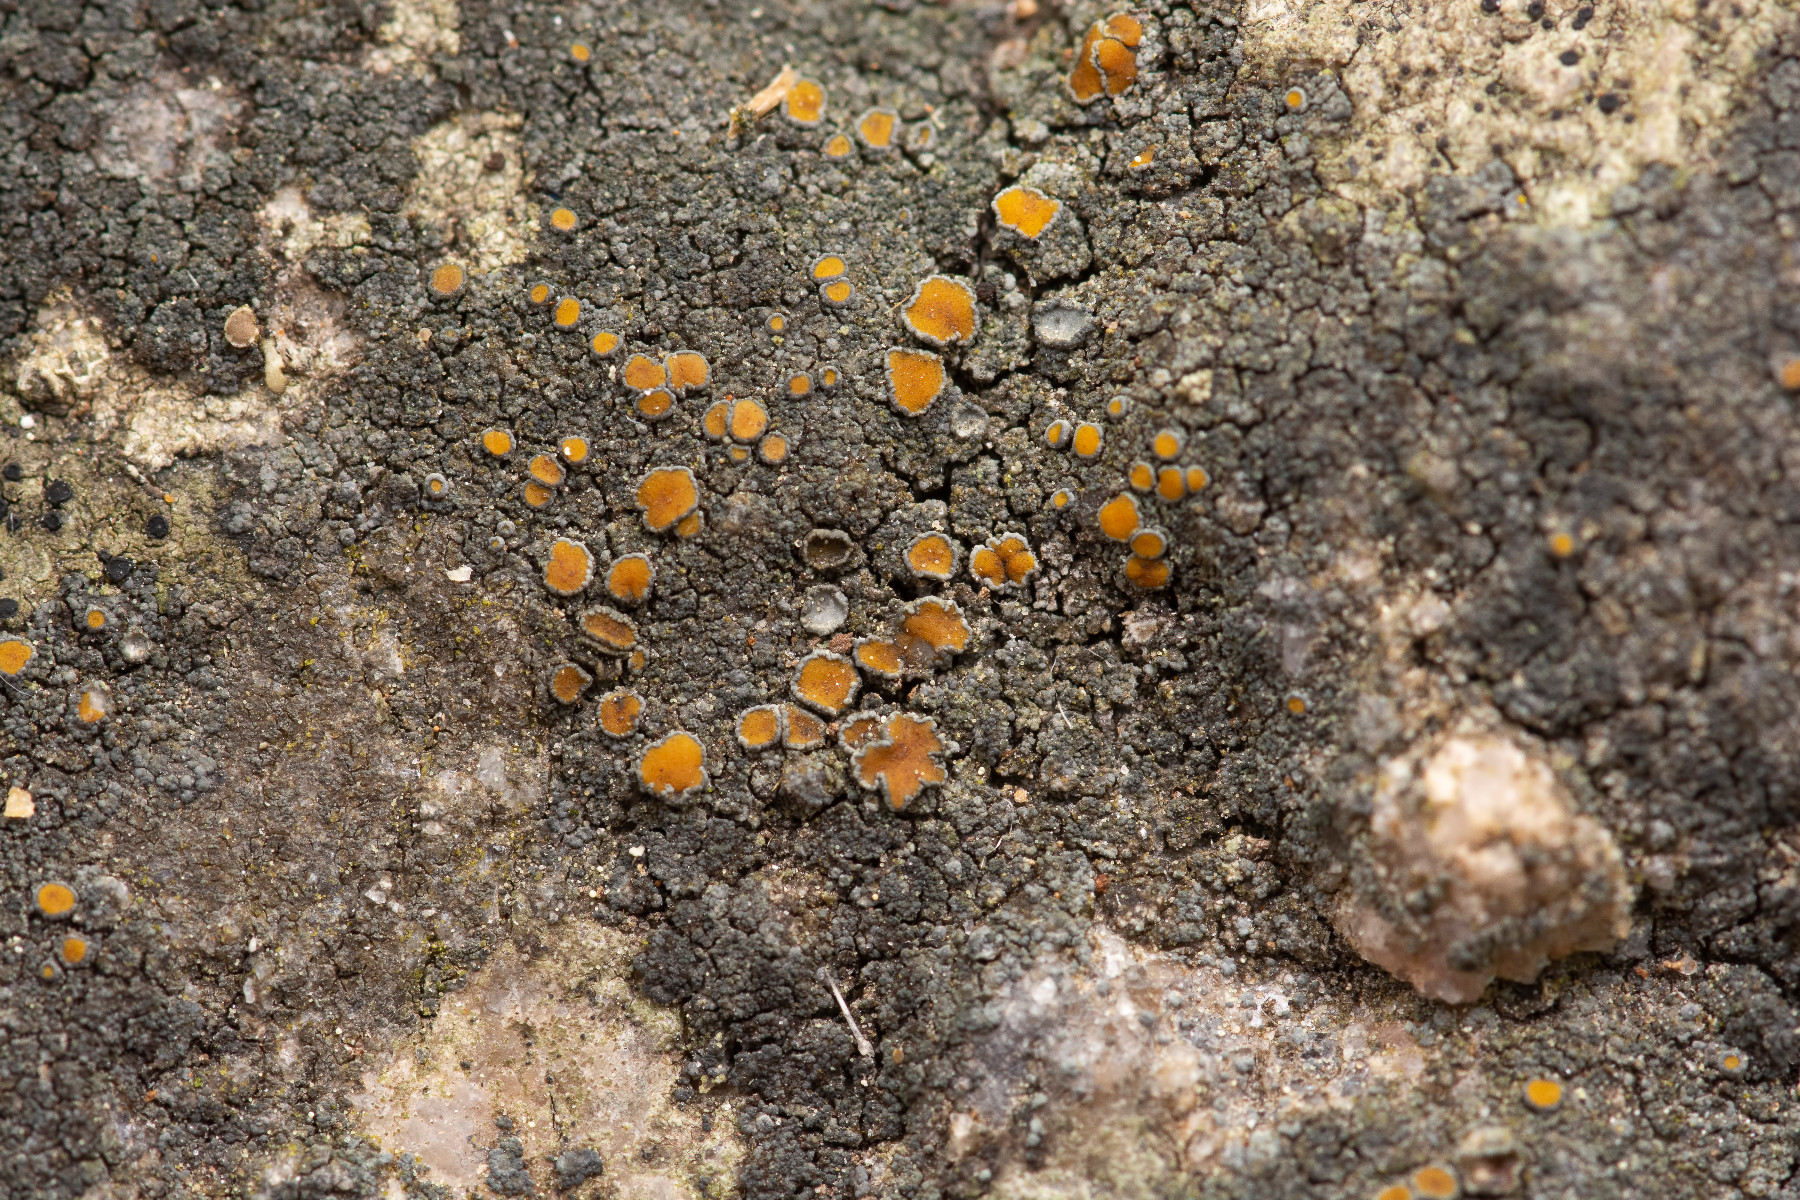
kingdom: Fungi
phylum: Ascomycota
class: Lecanoromycetes
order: Teloschistales
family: Teloschistaceae
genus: Caloplaca
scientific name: Caloplaca chlorina
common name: mørkskællet orangelav
